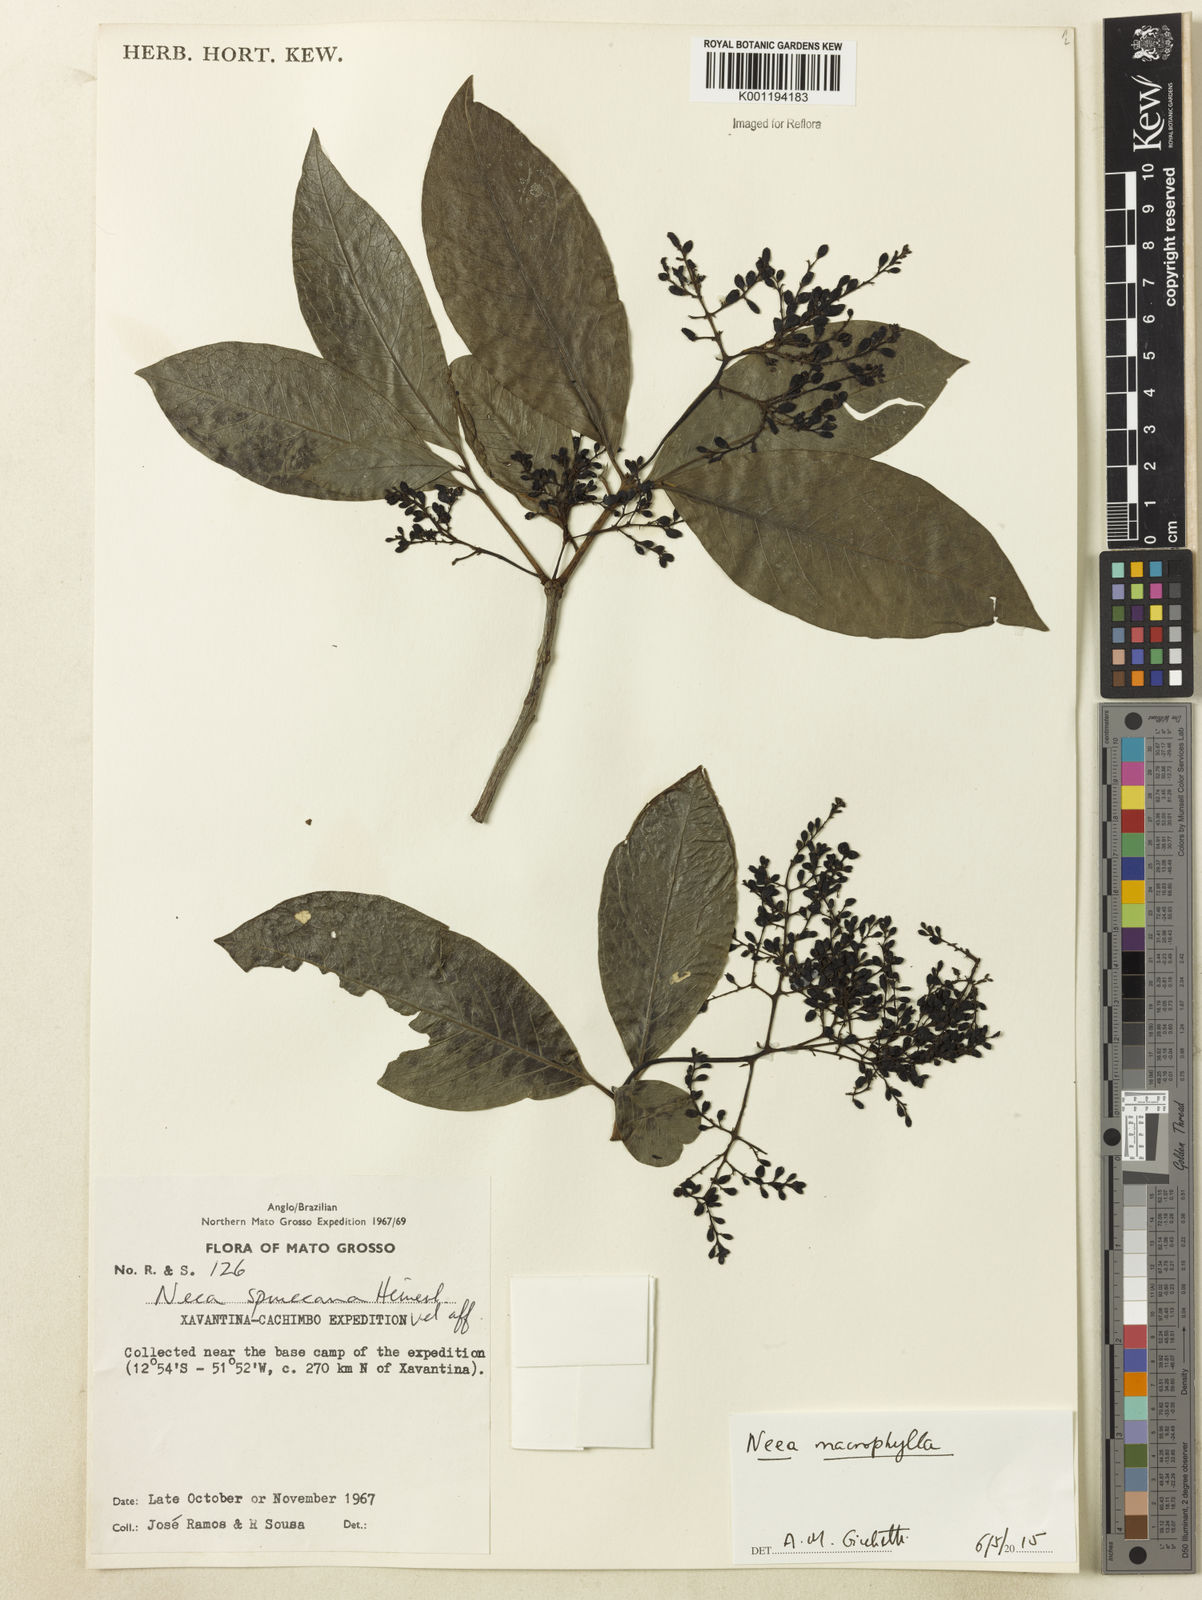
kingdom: Plantae
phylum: Tracheophyta
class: Magnoliopsida
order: Caryophyllales
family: Nyctaginaceae
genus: Neea
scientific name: Neea macrophylla
